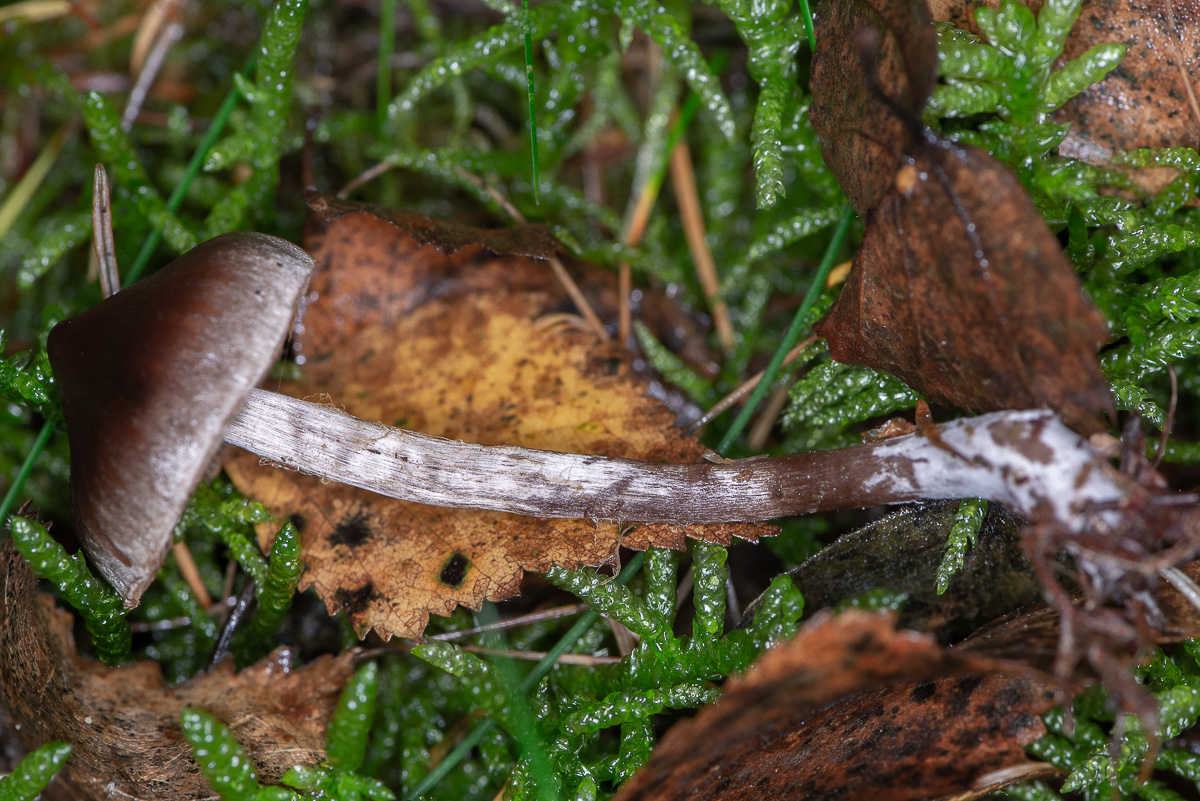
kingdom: Fungi
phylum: Basidiomycota
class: Agaricomycetes
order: Agaricales
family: Cortinariaceae
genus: Cortinarius
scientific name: Cortinarius umbrinolens
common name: mørk slørhat
